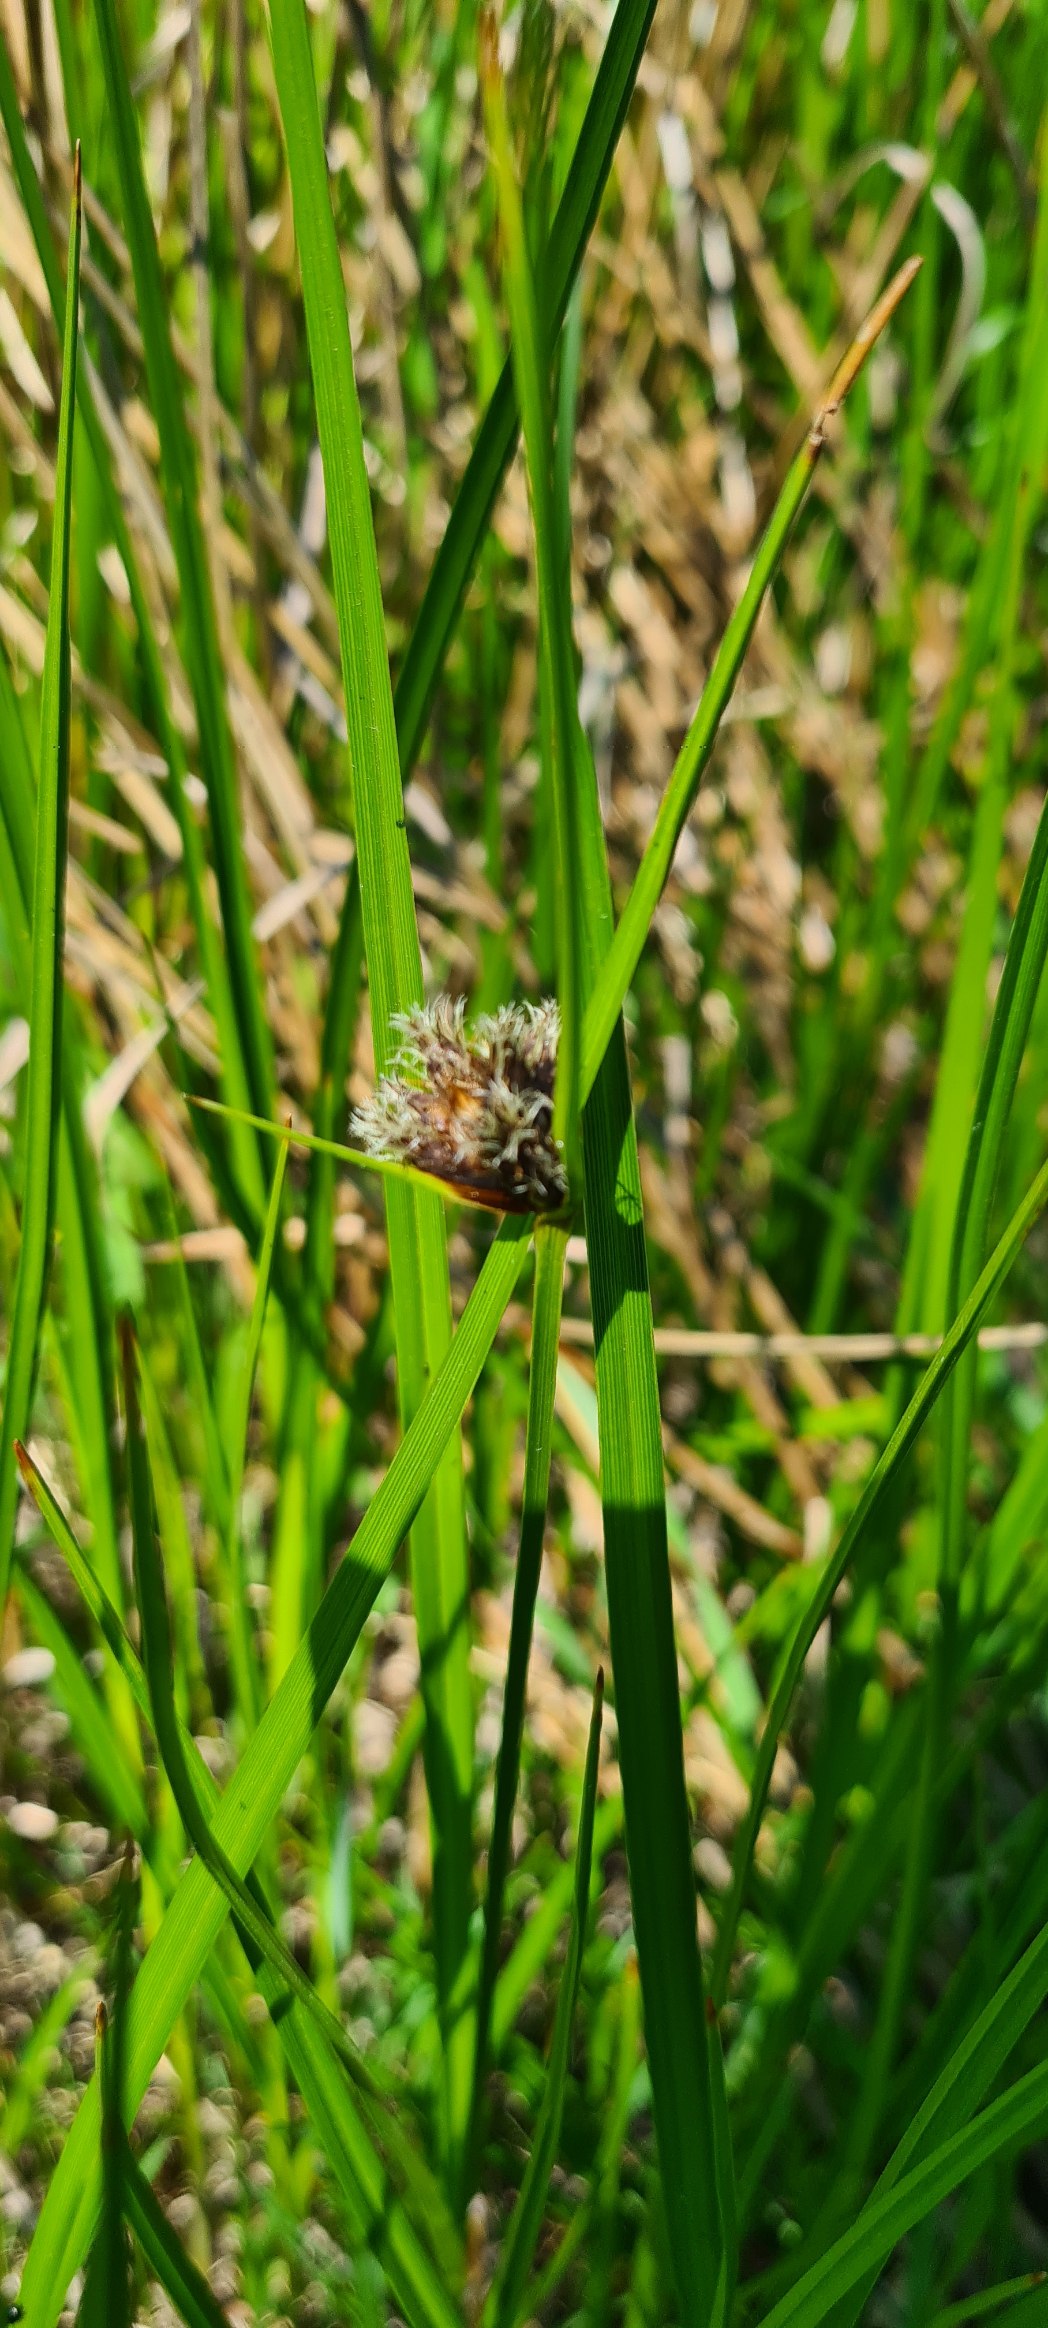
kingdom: Plantae
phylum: Tracheophyta
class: Liliopsida
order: Poales
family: Cyperaceae
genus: Bolboschoenus
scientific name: Bolboschoenus maritimus
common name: Strand-kogleaks
